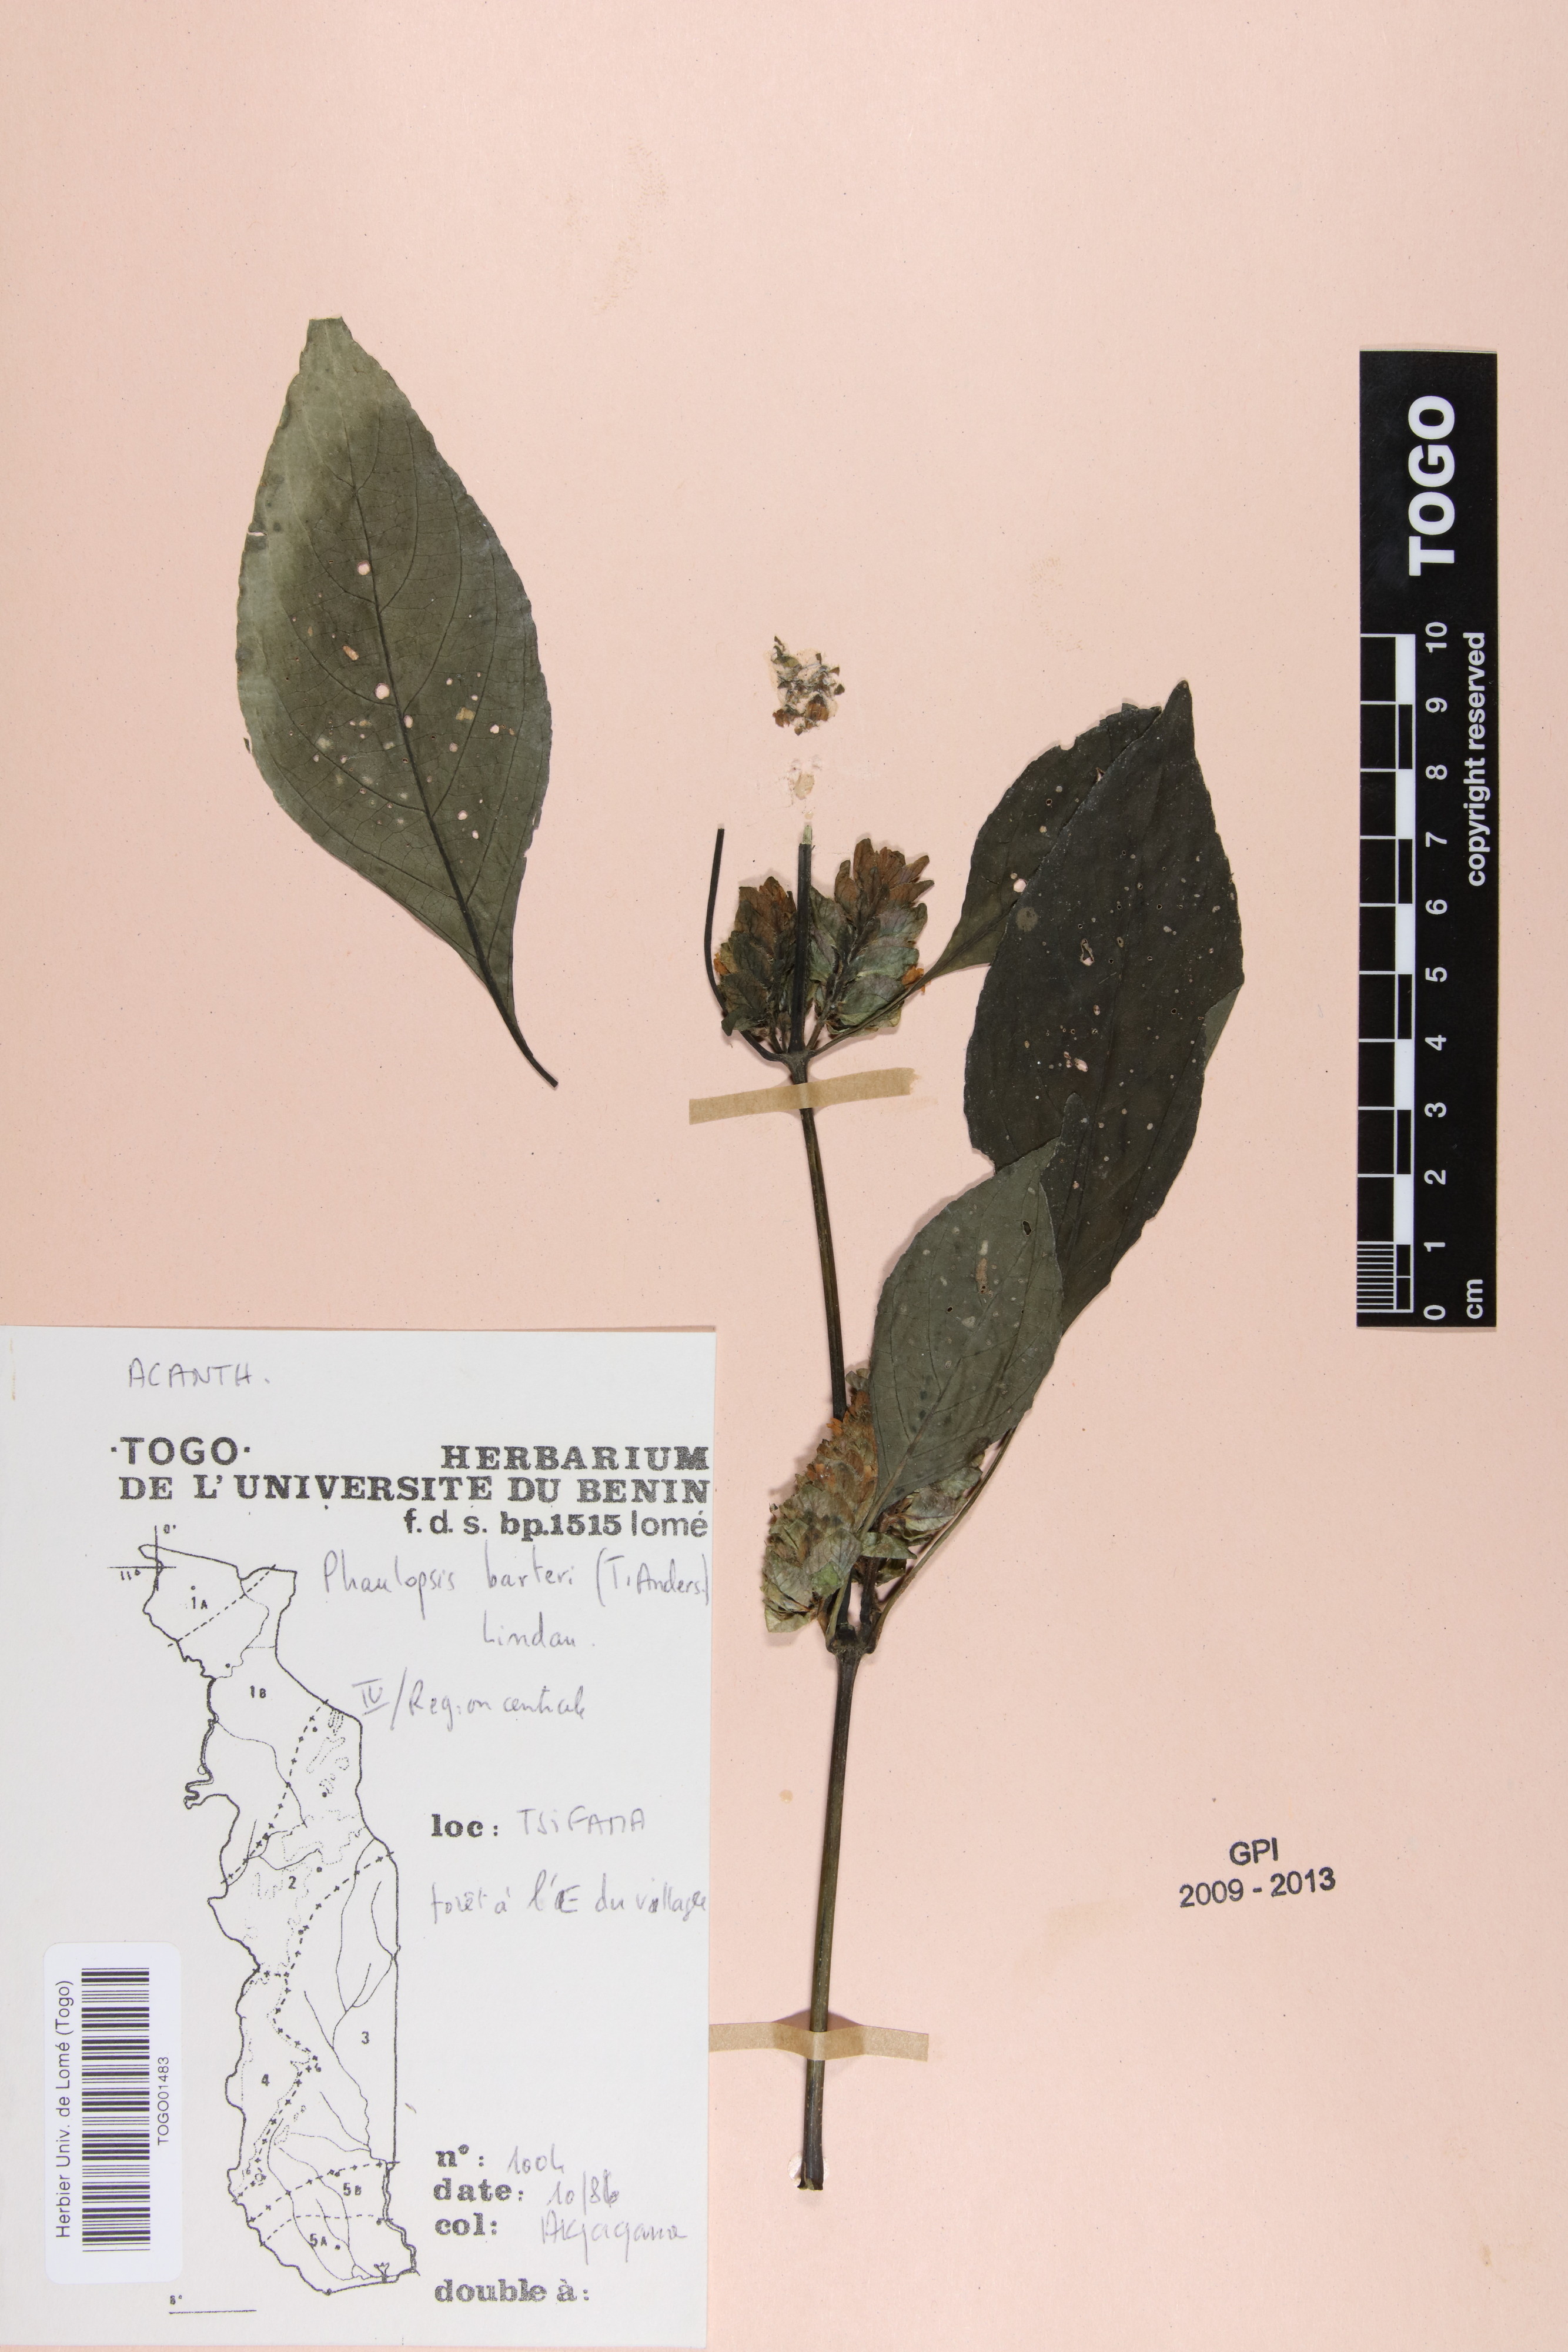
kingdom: Plantae
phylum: Tracheophyta
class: Magnoliopsida
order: Lamiales
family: Acanthaceae
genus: Phaulopsis
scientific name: Phaulopsis barteri
